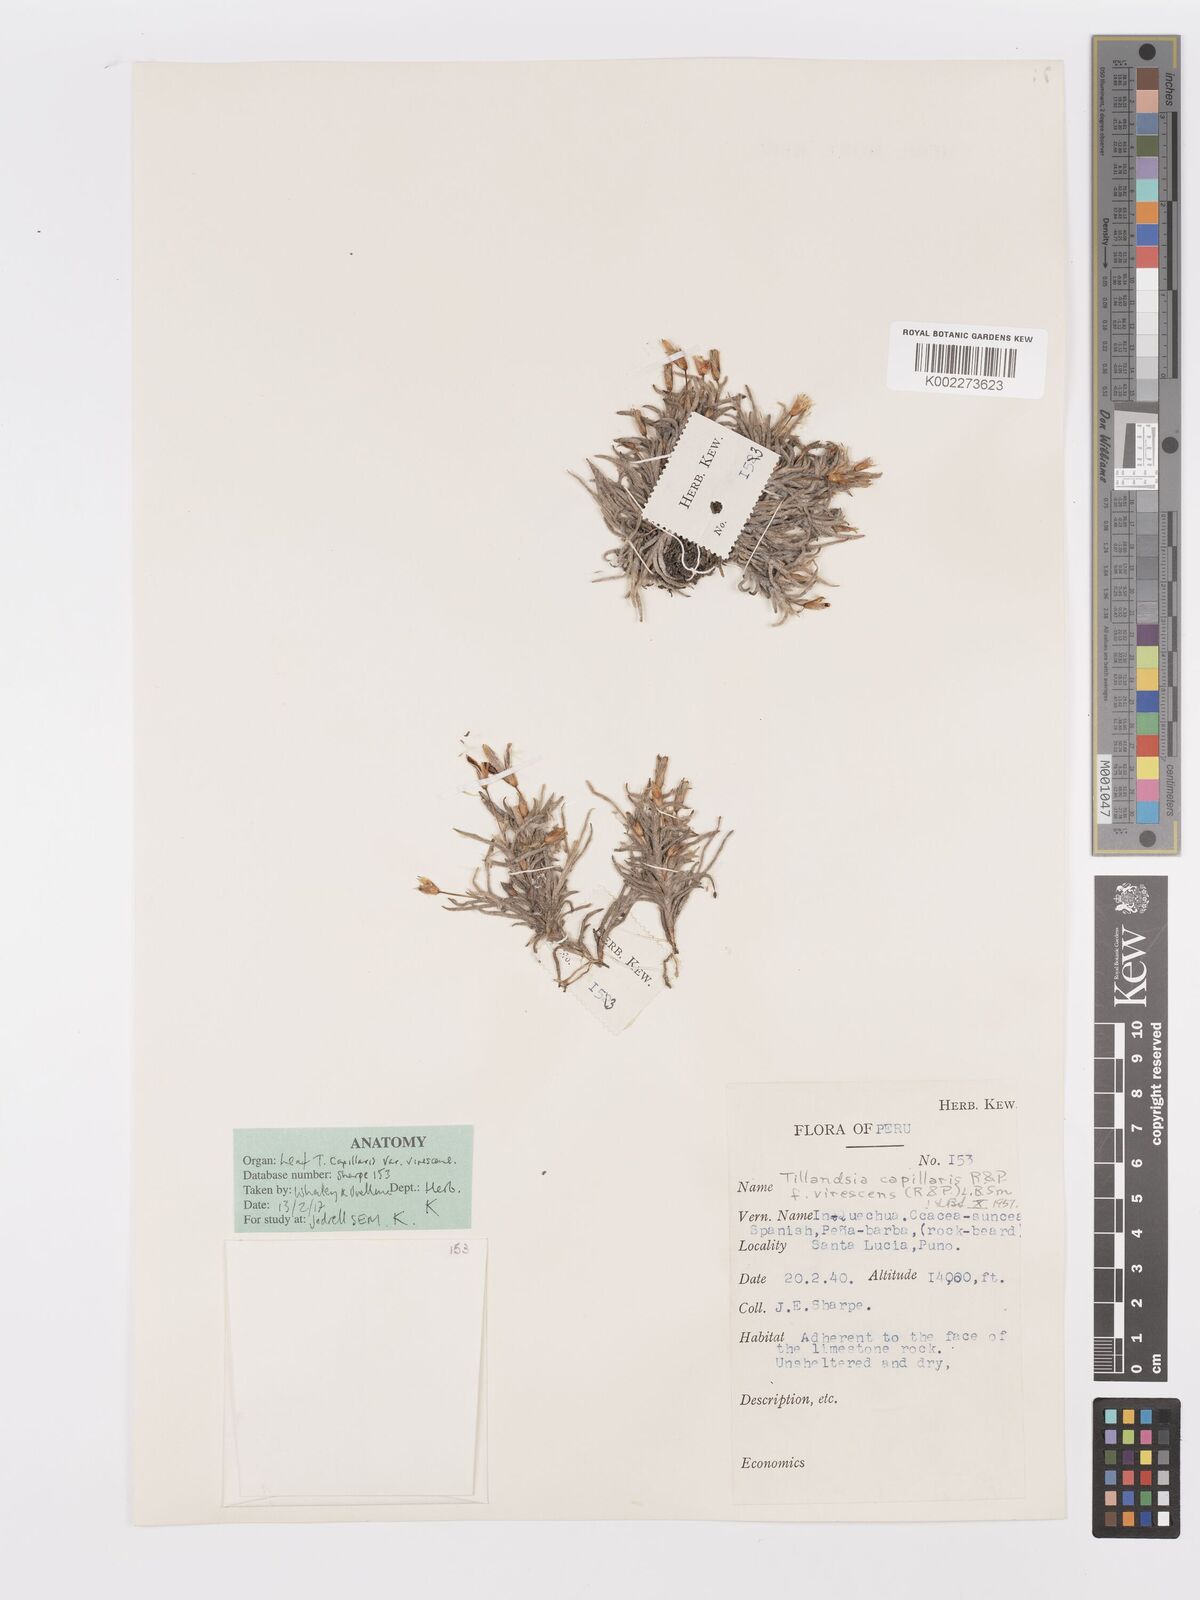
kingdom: Plantae
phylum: Tracheophyta
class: Liliopsida
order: Poales
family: Bromeliaceae
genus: Tillandsia
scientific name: Tillandsia virescens
